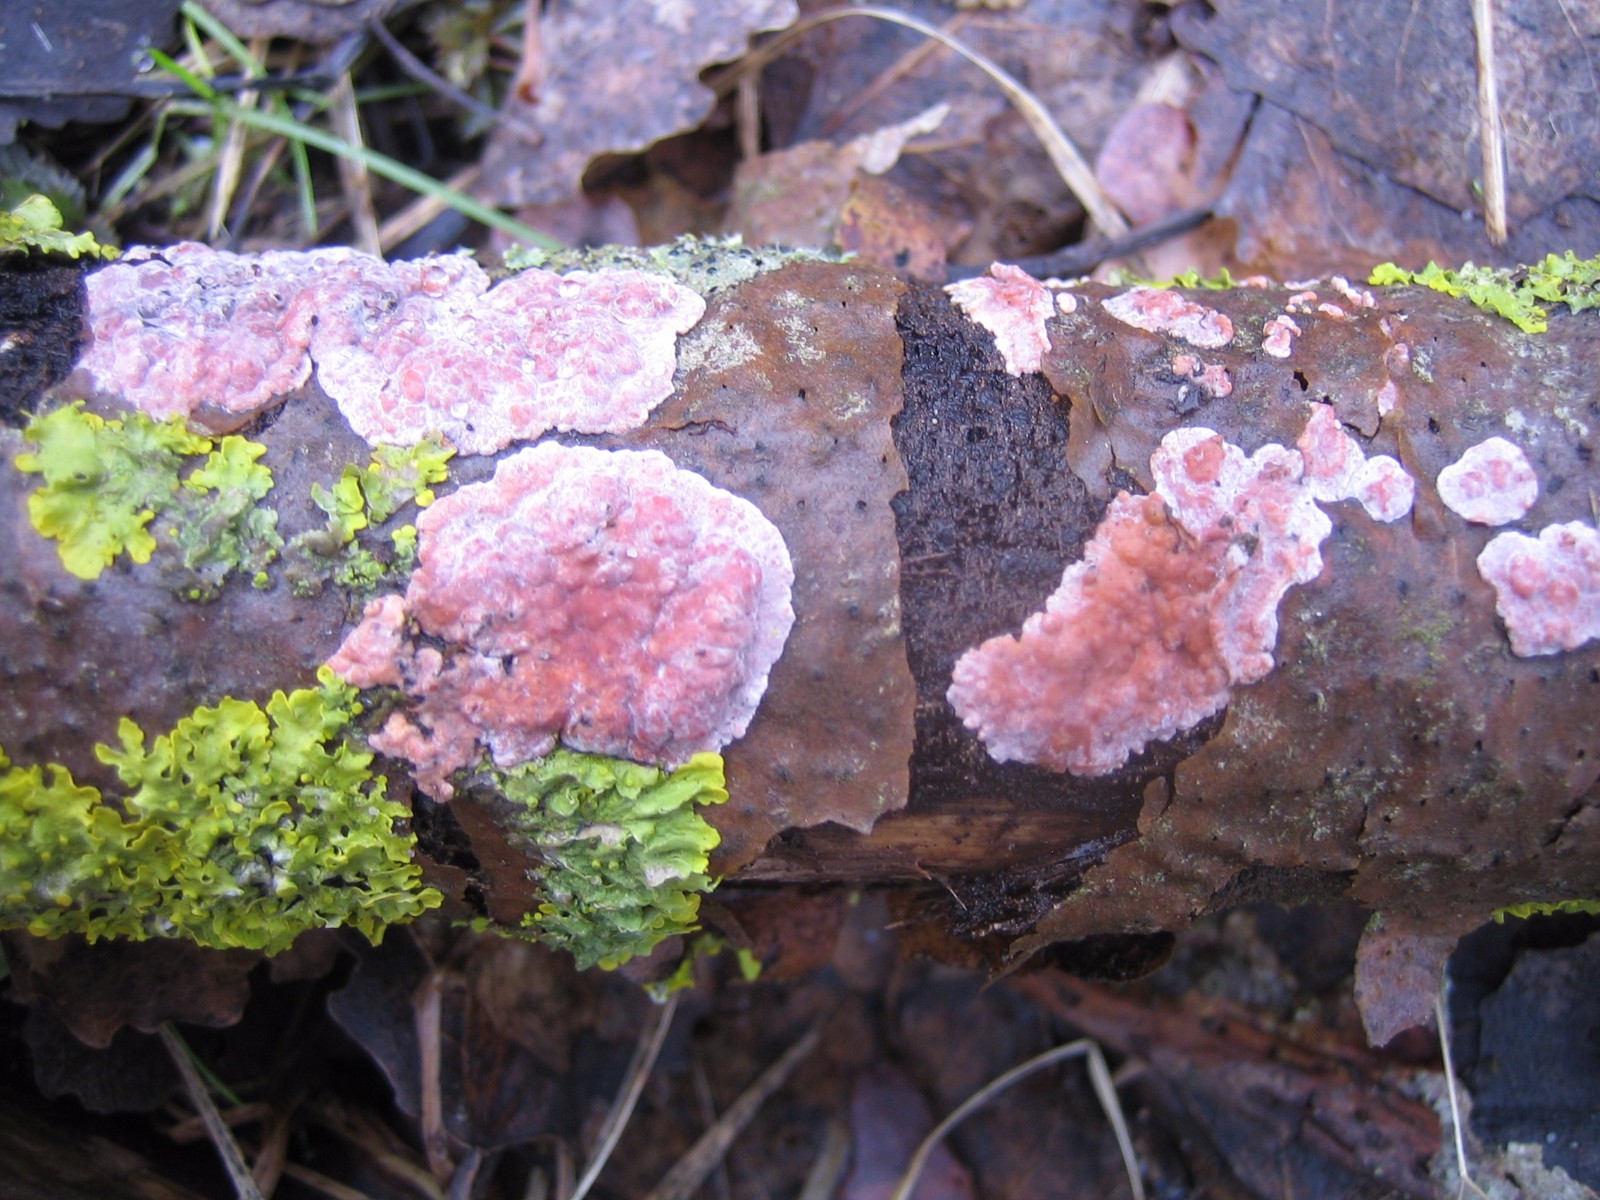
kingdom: Fungi
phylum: Basidiomycota
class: Agaricomycetes
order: Russulales
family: Peniophoraceae
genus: Peniophora
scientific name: Peniophora polygonia
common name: polygon-voksskind
